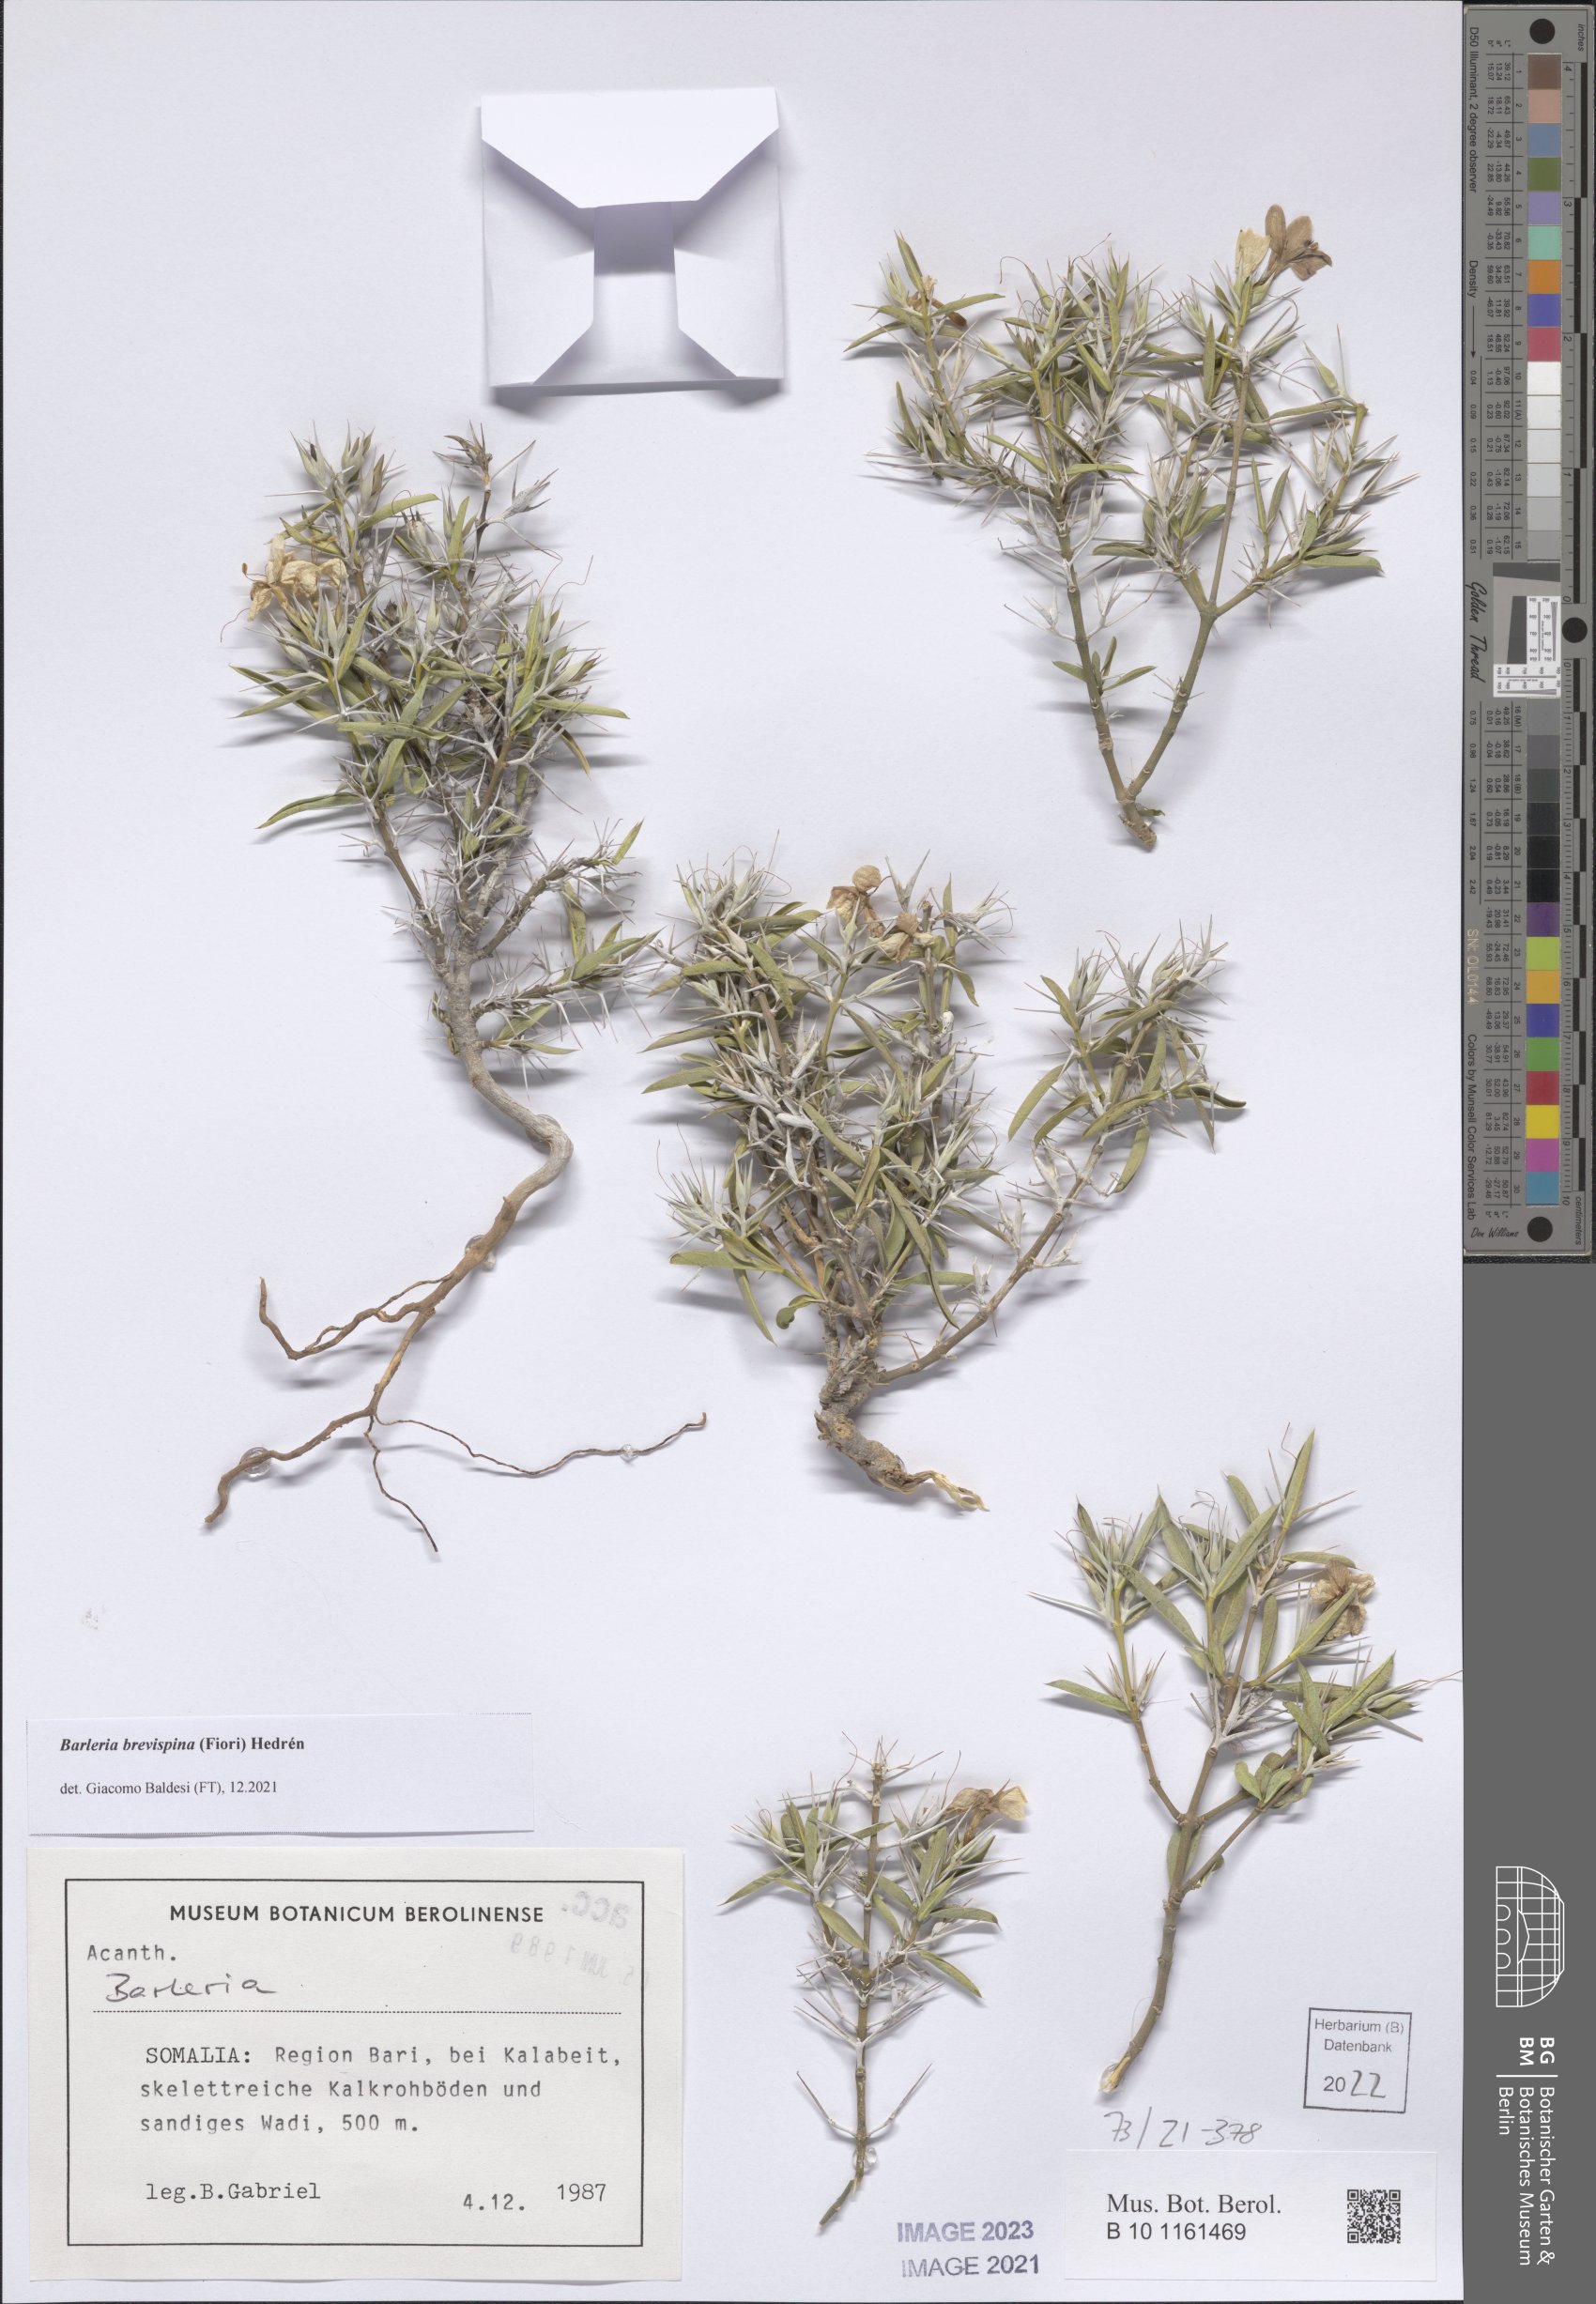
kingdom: Plantae
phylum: Tracheophyta
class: Magnoliopsida
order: Lamiales
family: Acanthaceae
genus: Barleria
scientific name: Barleria brevispina
